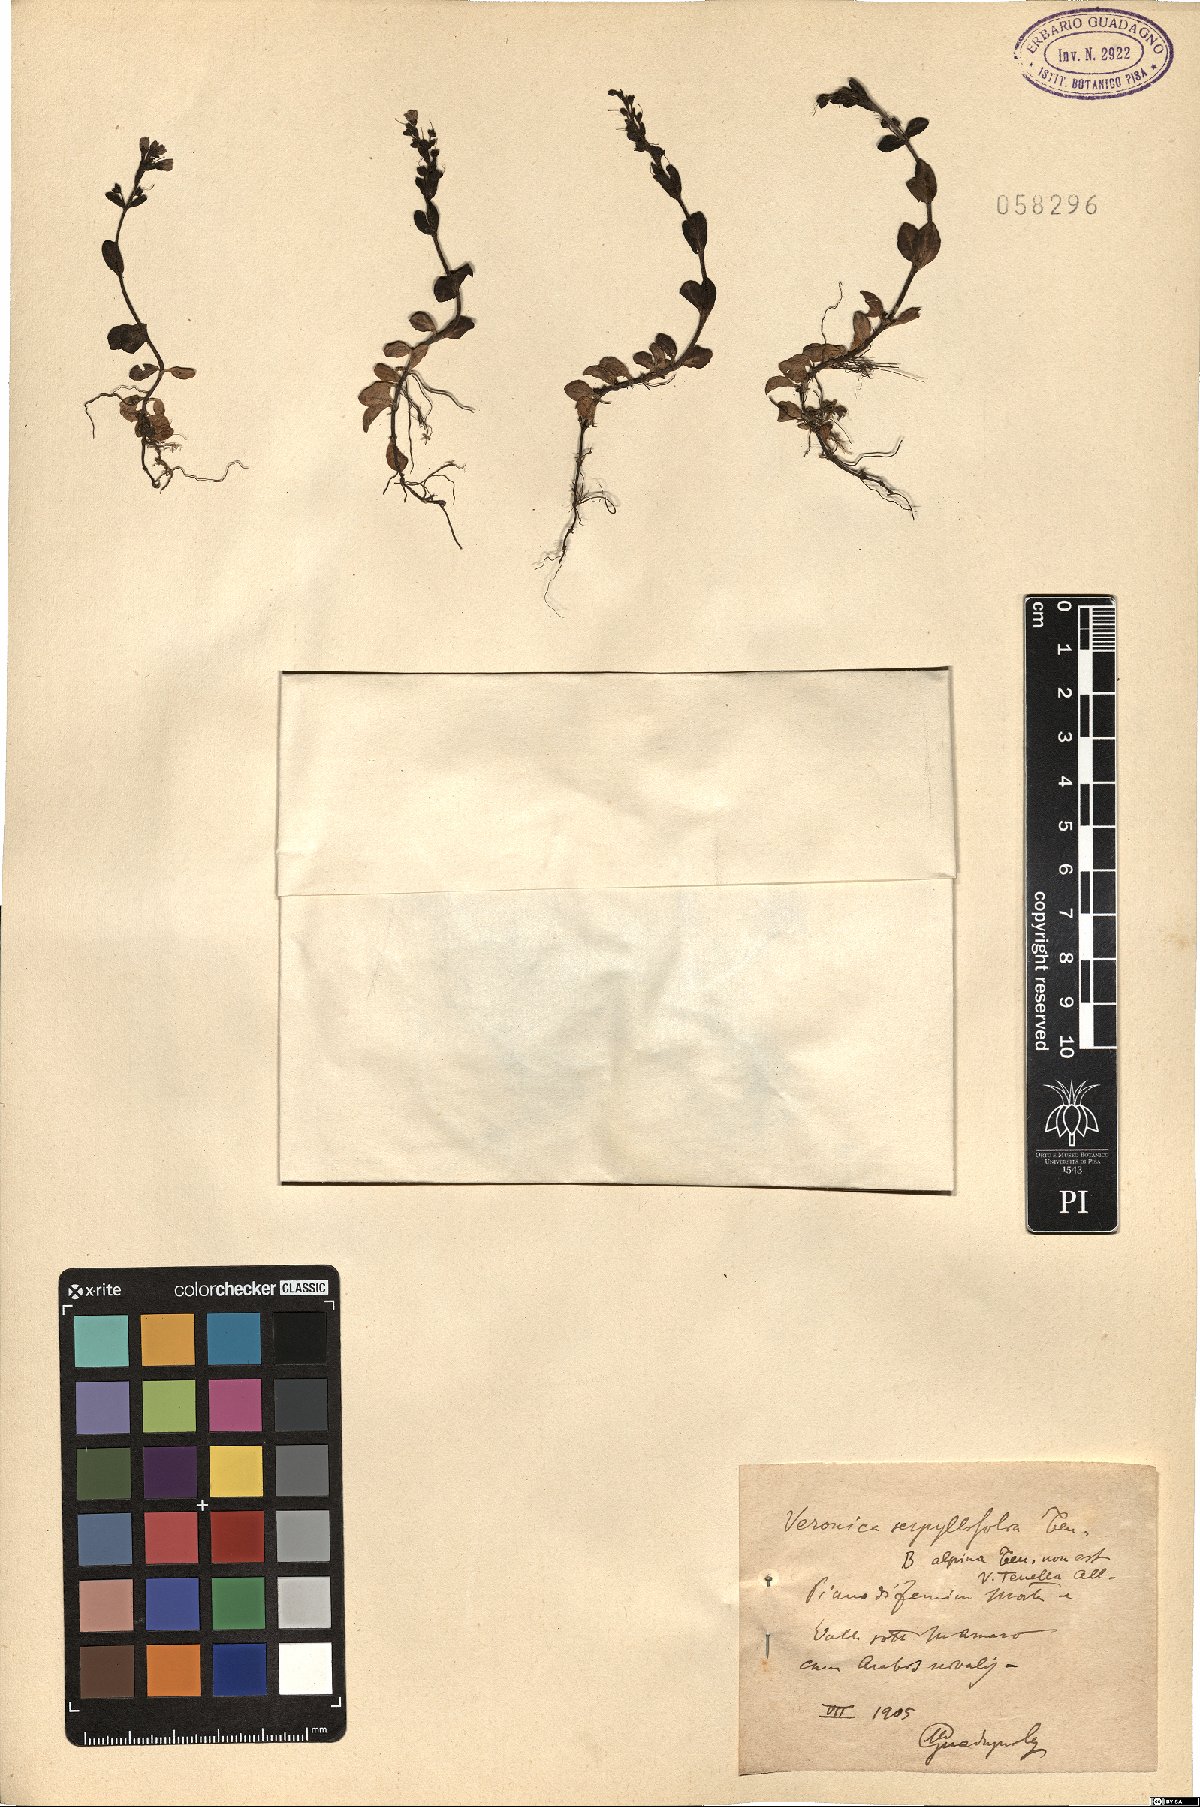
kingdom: Plantae
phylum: Tracheophyta
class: Magnoliopsida
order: Lamiales
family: Plantaginaceae
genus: Veronica
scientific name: Veronica serpyllifolia
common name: Thyme-leaved speedwell
